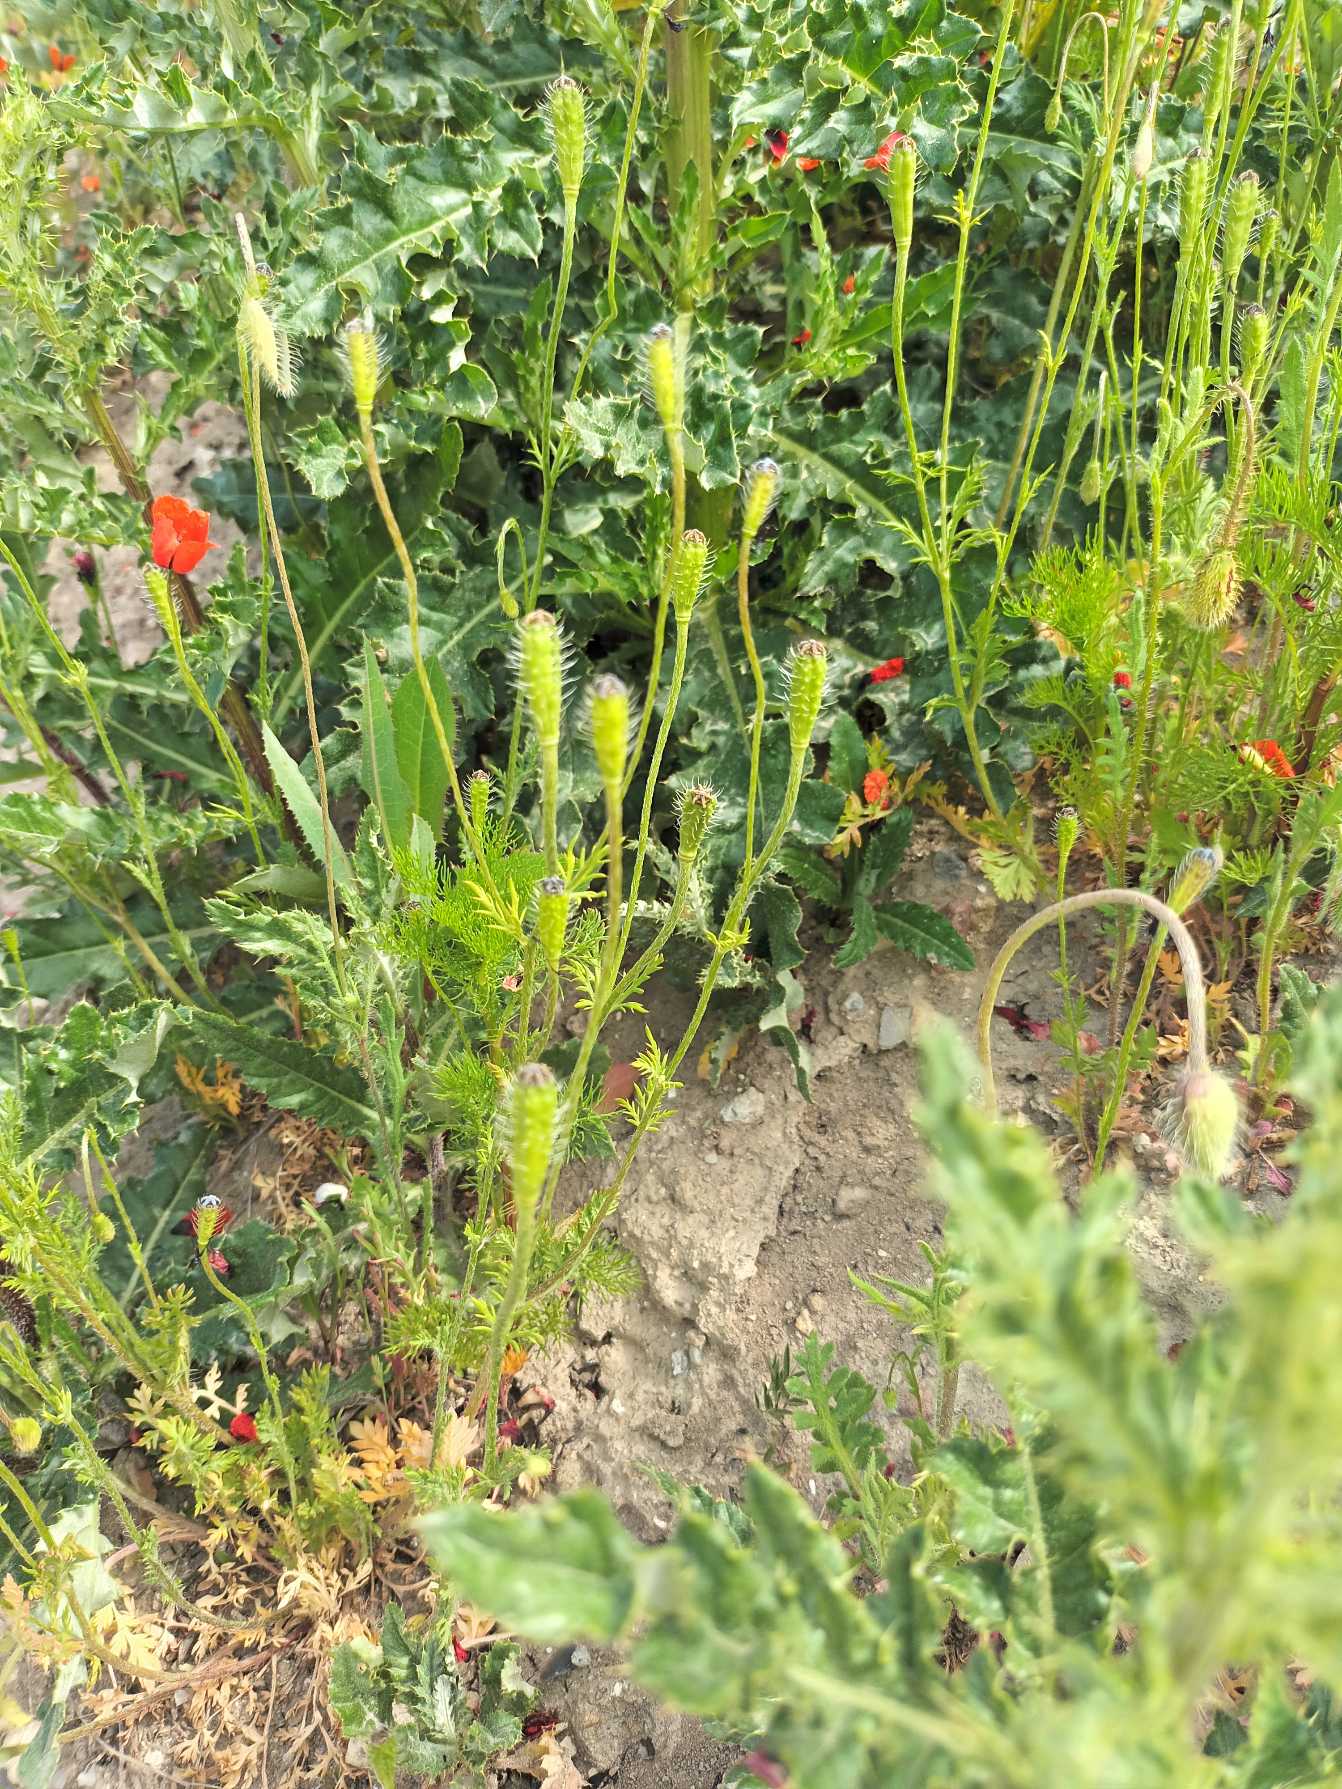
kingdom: Plantae
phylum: Tracheophyta
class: Magnoliopsida
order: Ranunculales
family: Papaveraceae
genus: Roemeria
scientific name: Roemeria argemone
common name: Kølle-valmue
